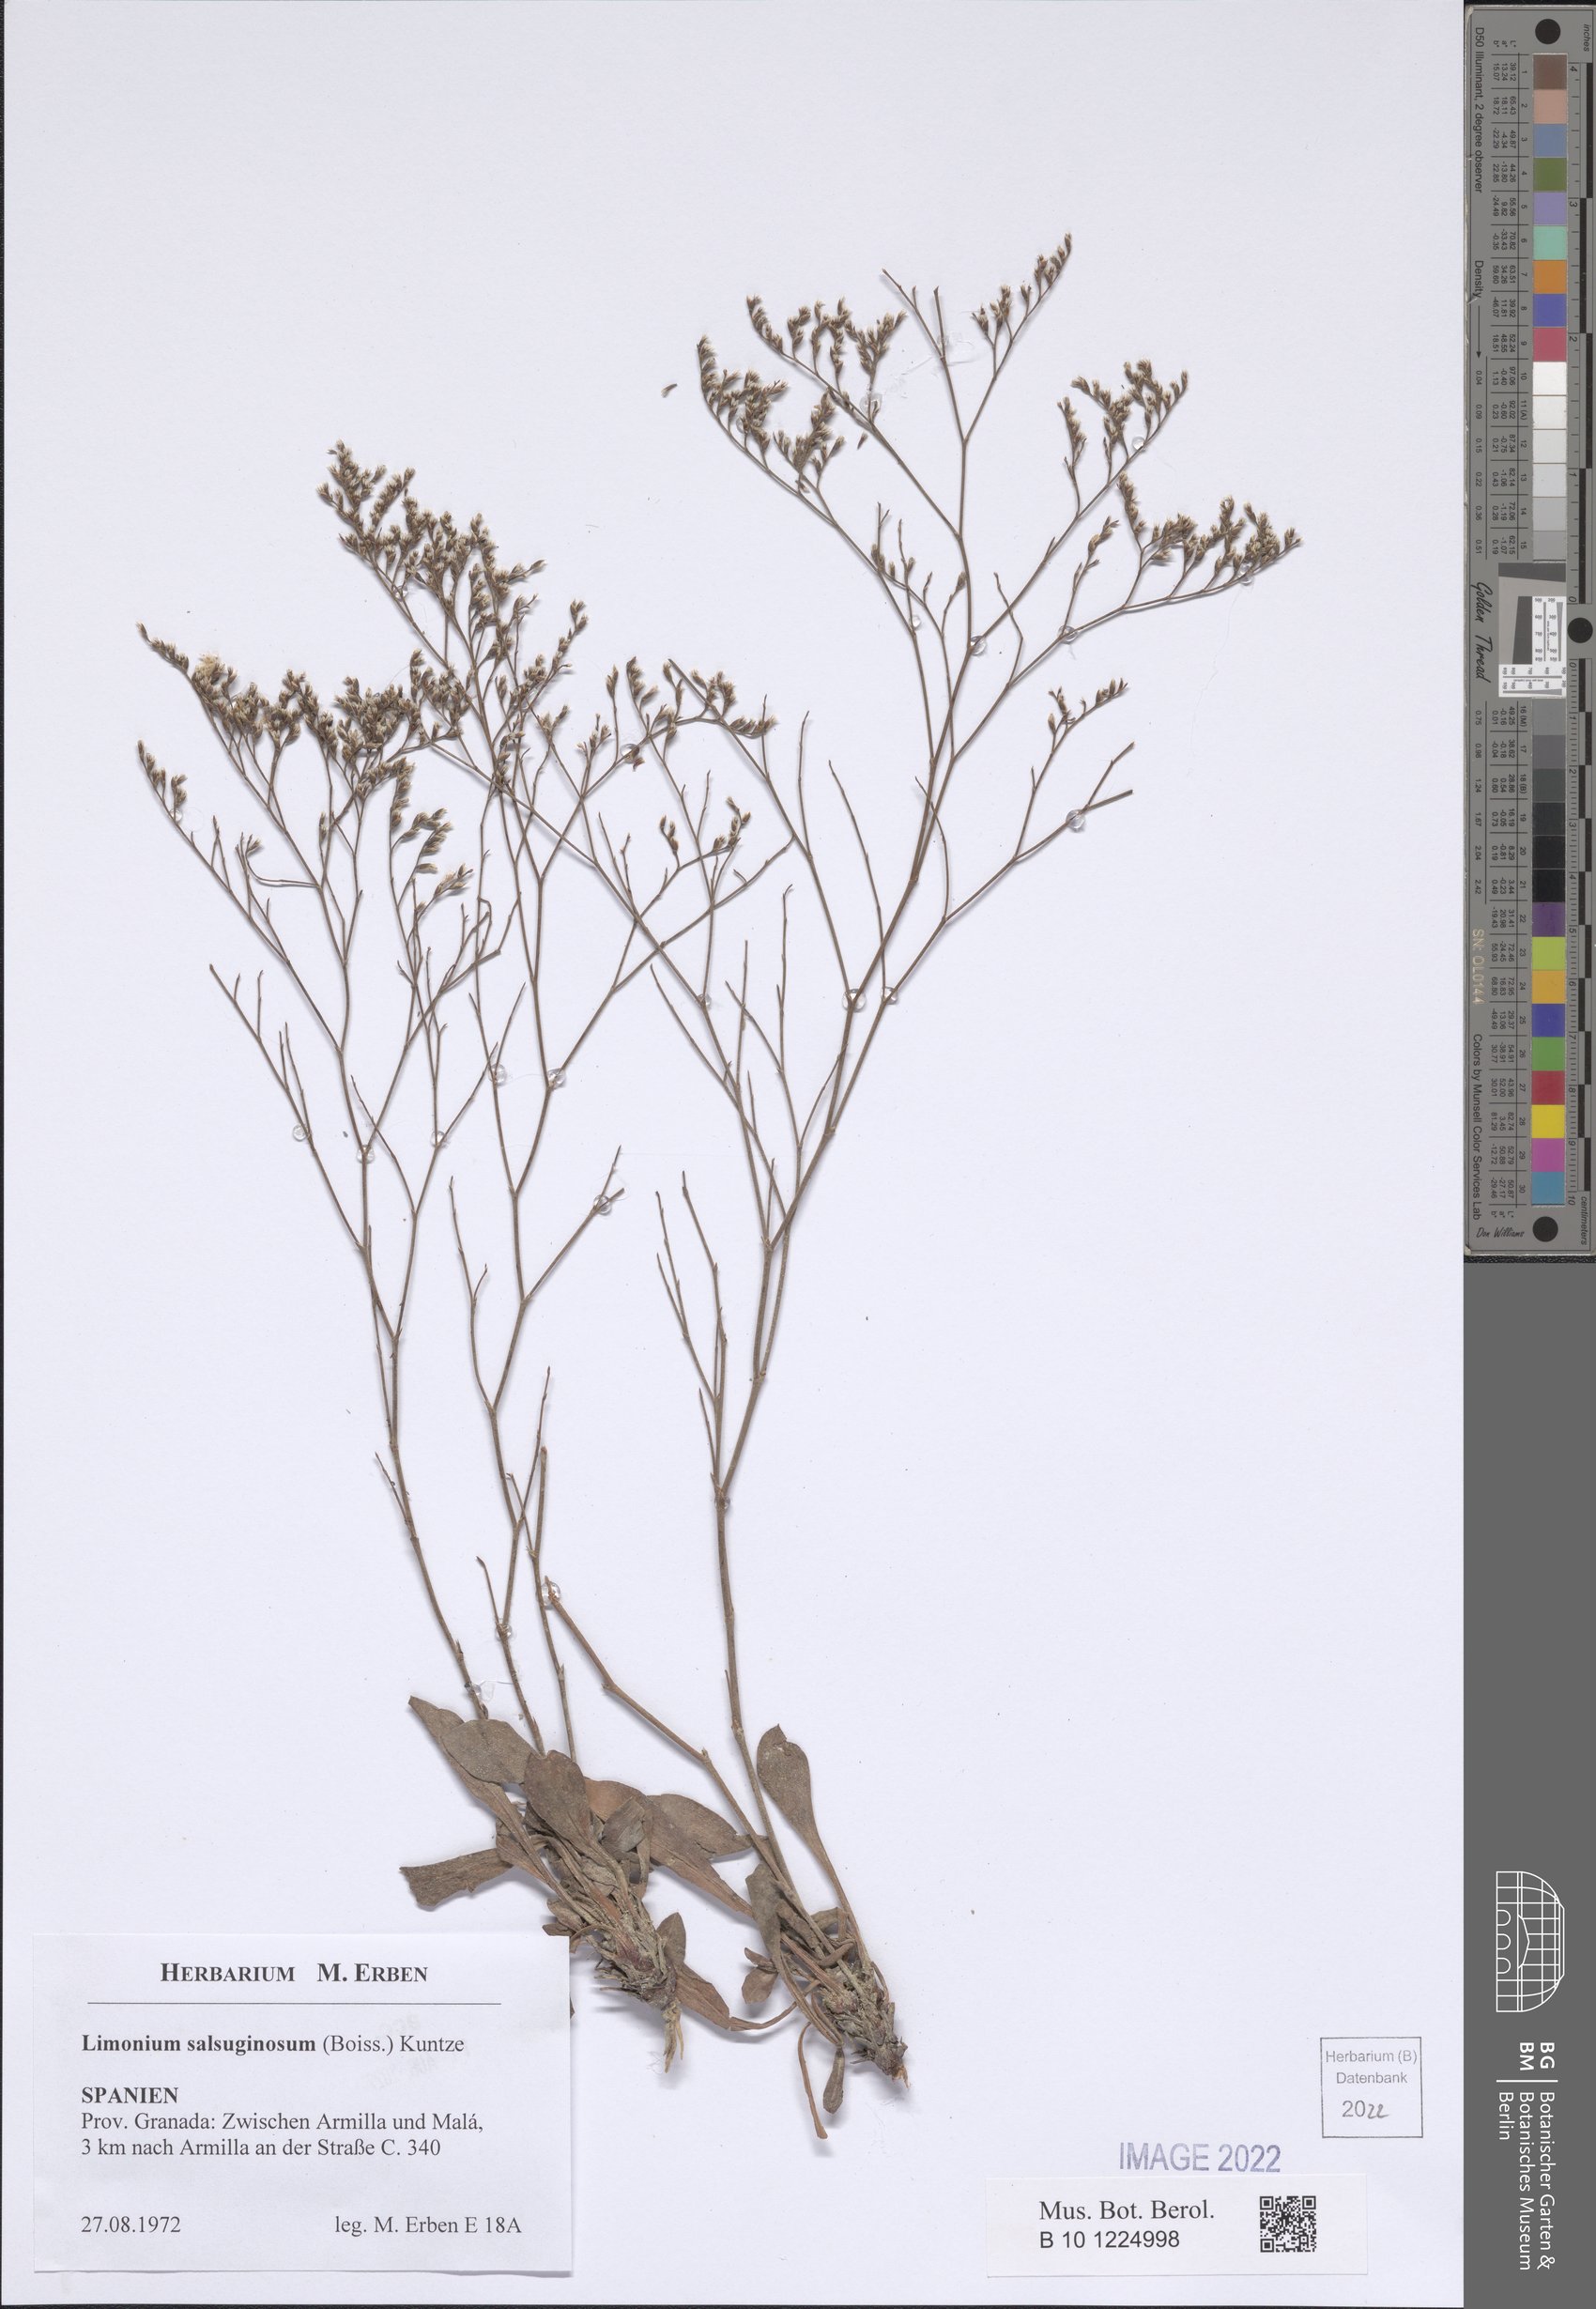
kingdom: Plantae
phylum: Tracheophyta
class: Magnoliopsida
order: Caryophyllales
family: Plumbaginaceae
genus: Limonium
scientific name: Limonium supinum
